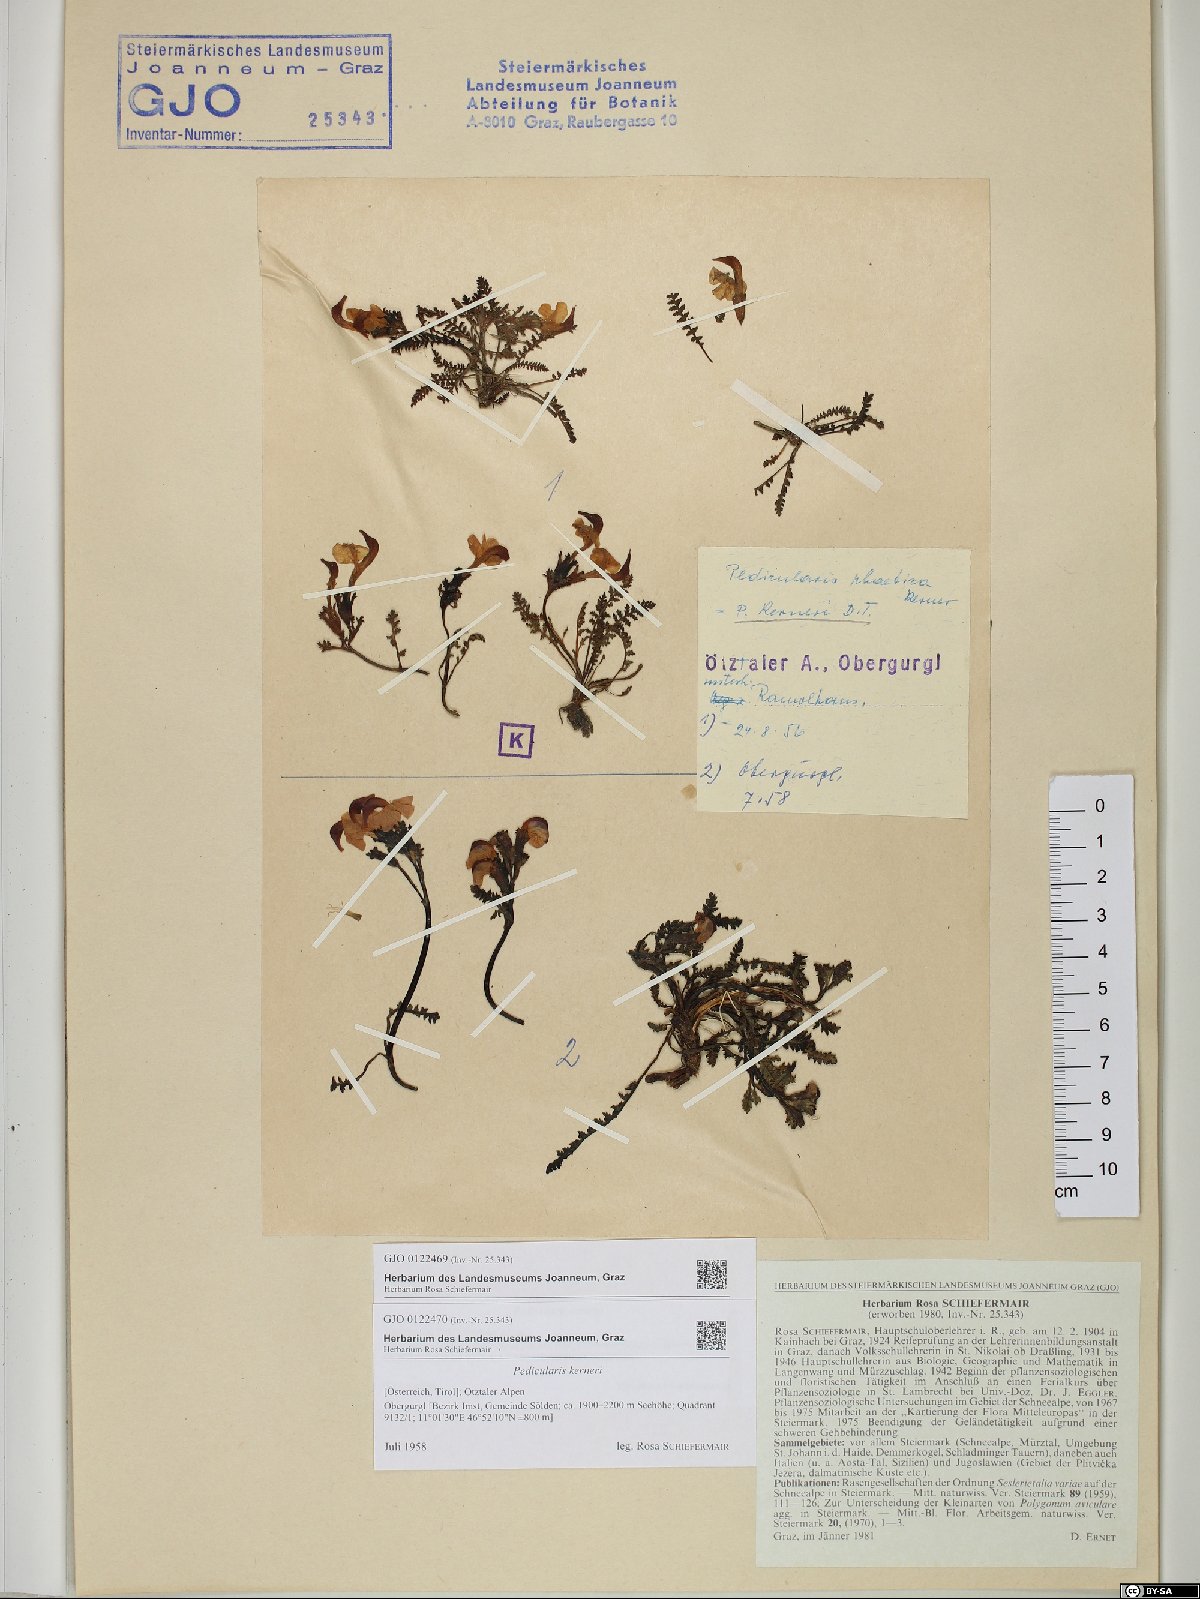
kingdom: Plantae
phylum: Tracheophyta
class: Magnoliopsida
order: Lamiales
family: Orobanchaceae
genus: Pedicularis
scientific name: Pedicularis kerneri
